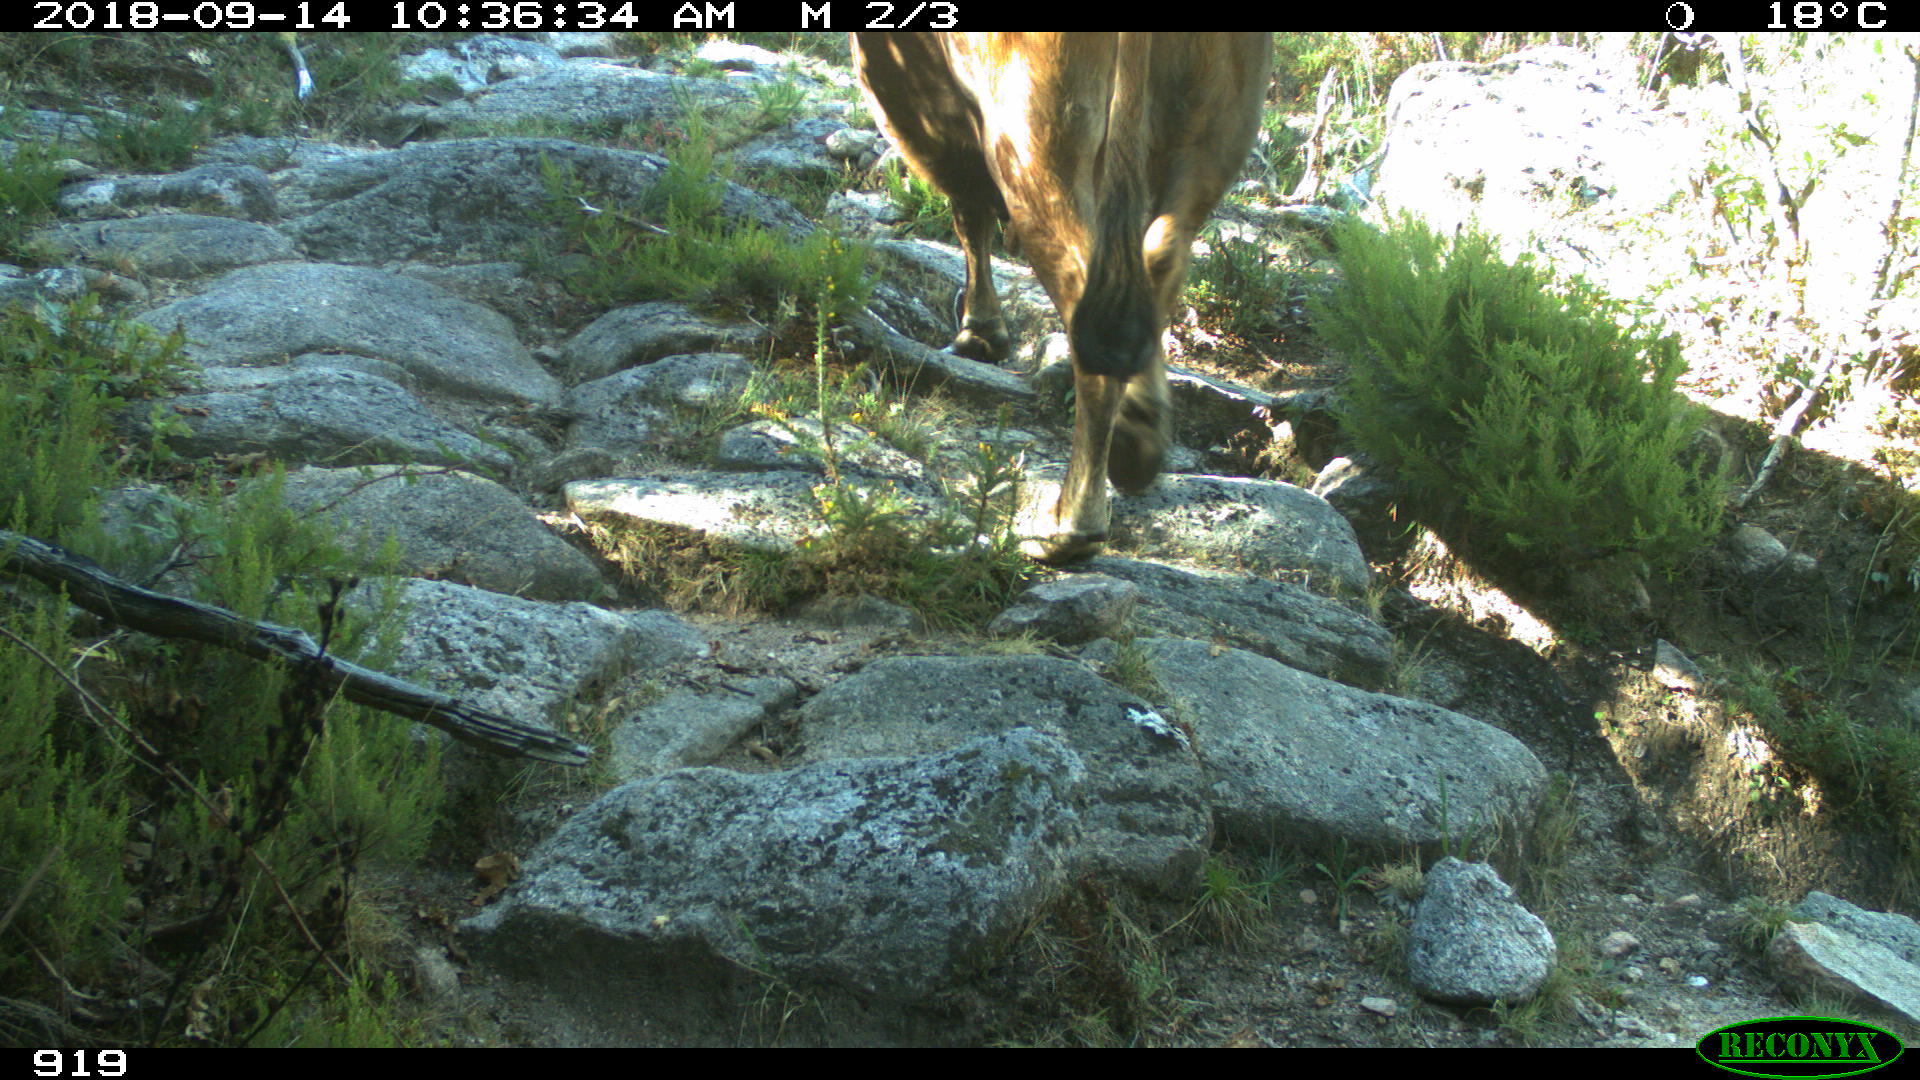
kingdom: Animalia
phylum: Chordata
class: Mammalia
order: Artiodactyla
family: Bovidae
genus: Bos
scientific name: Bos taurus
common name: Domesticated cattle
